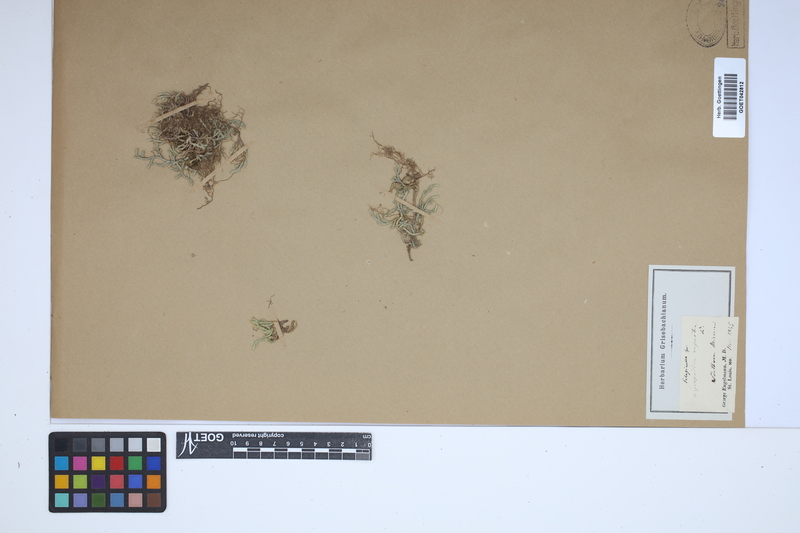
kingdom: Plantae
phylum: Tracheophyta
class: Lycopodiopsida
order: Selaginellales
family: Selaginellaceae
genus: Selaginella
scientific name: Selaginella rupestris
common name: Dwarf spikemoss
